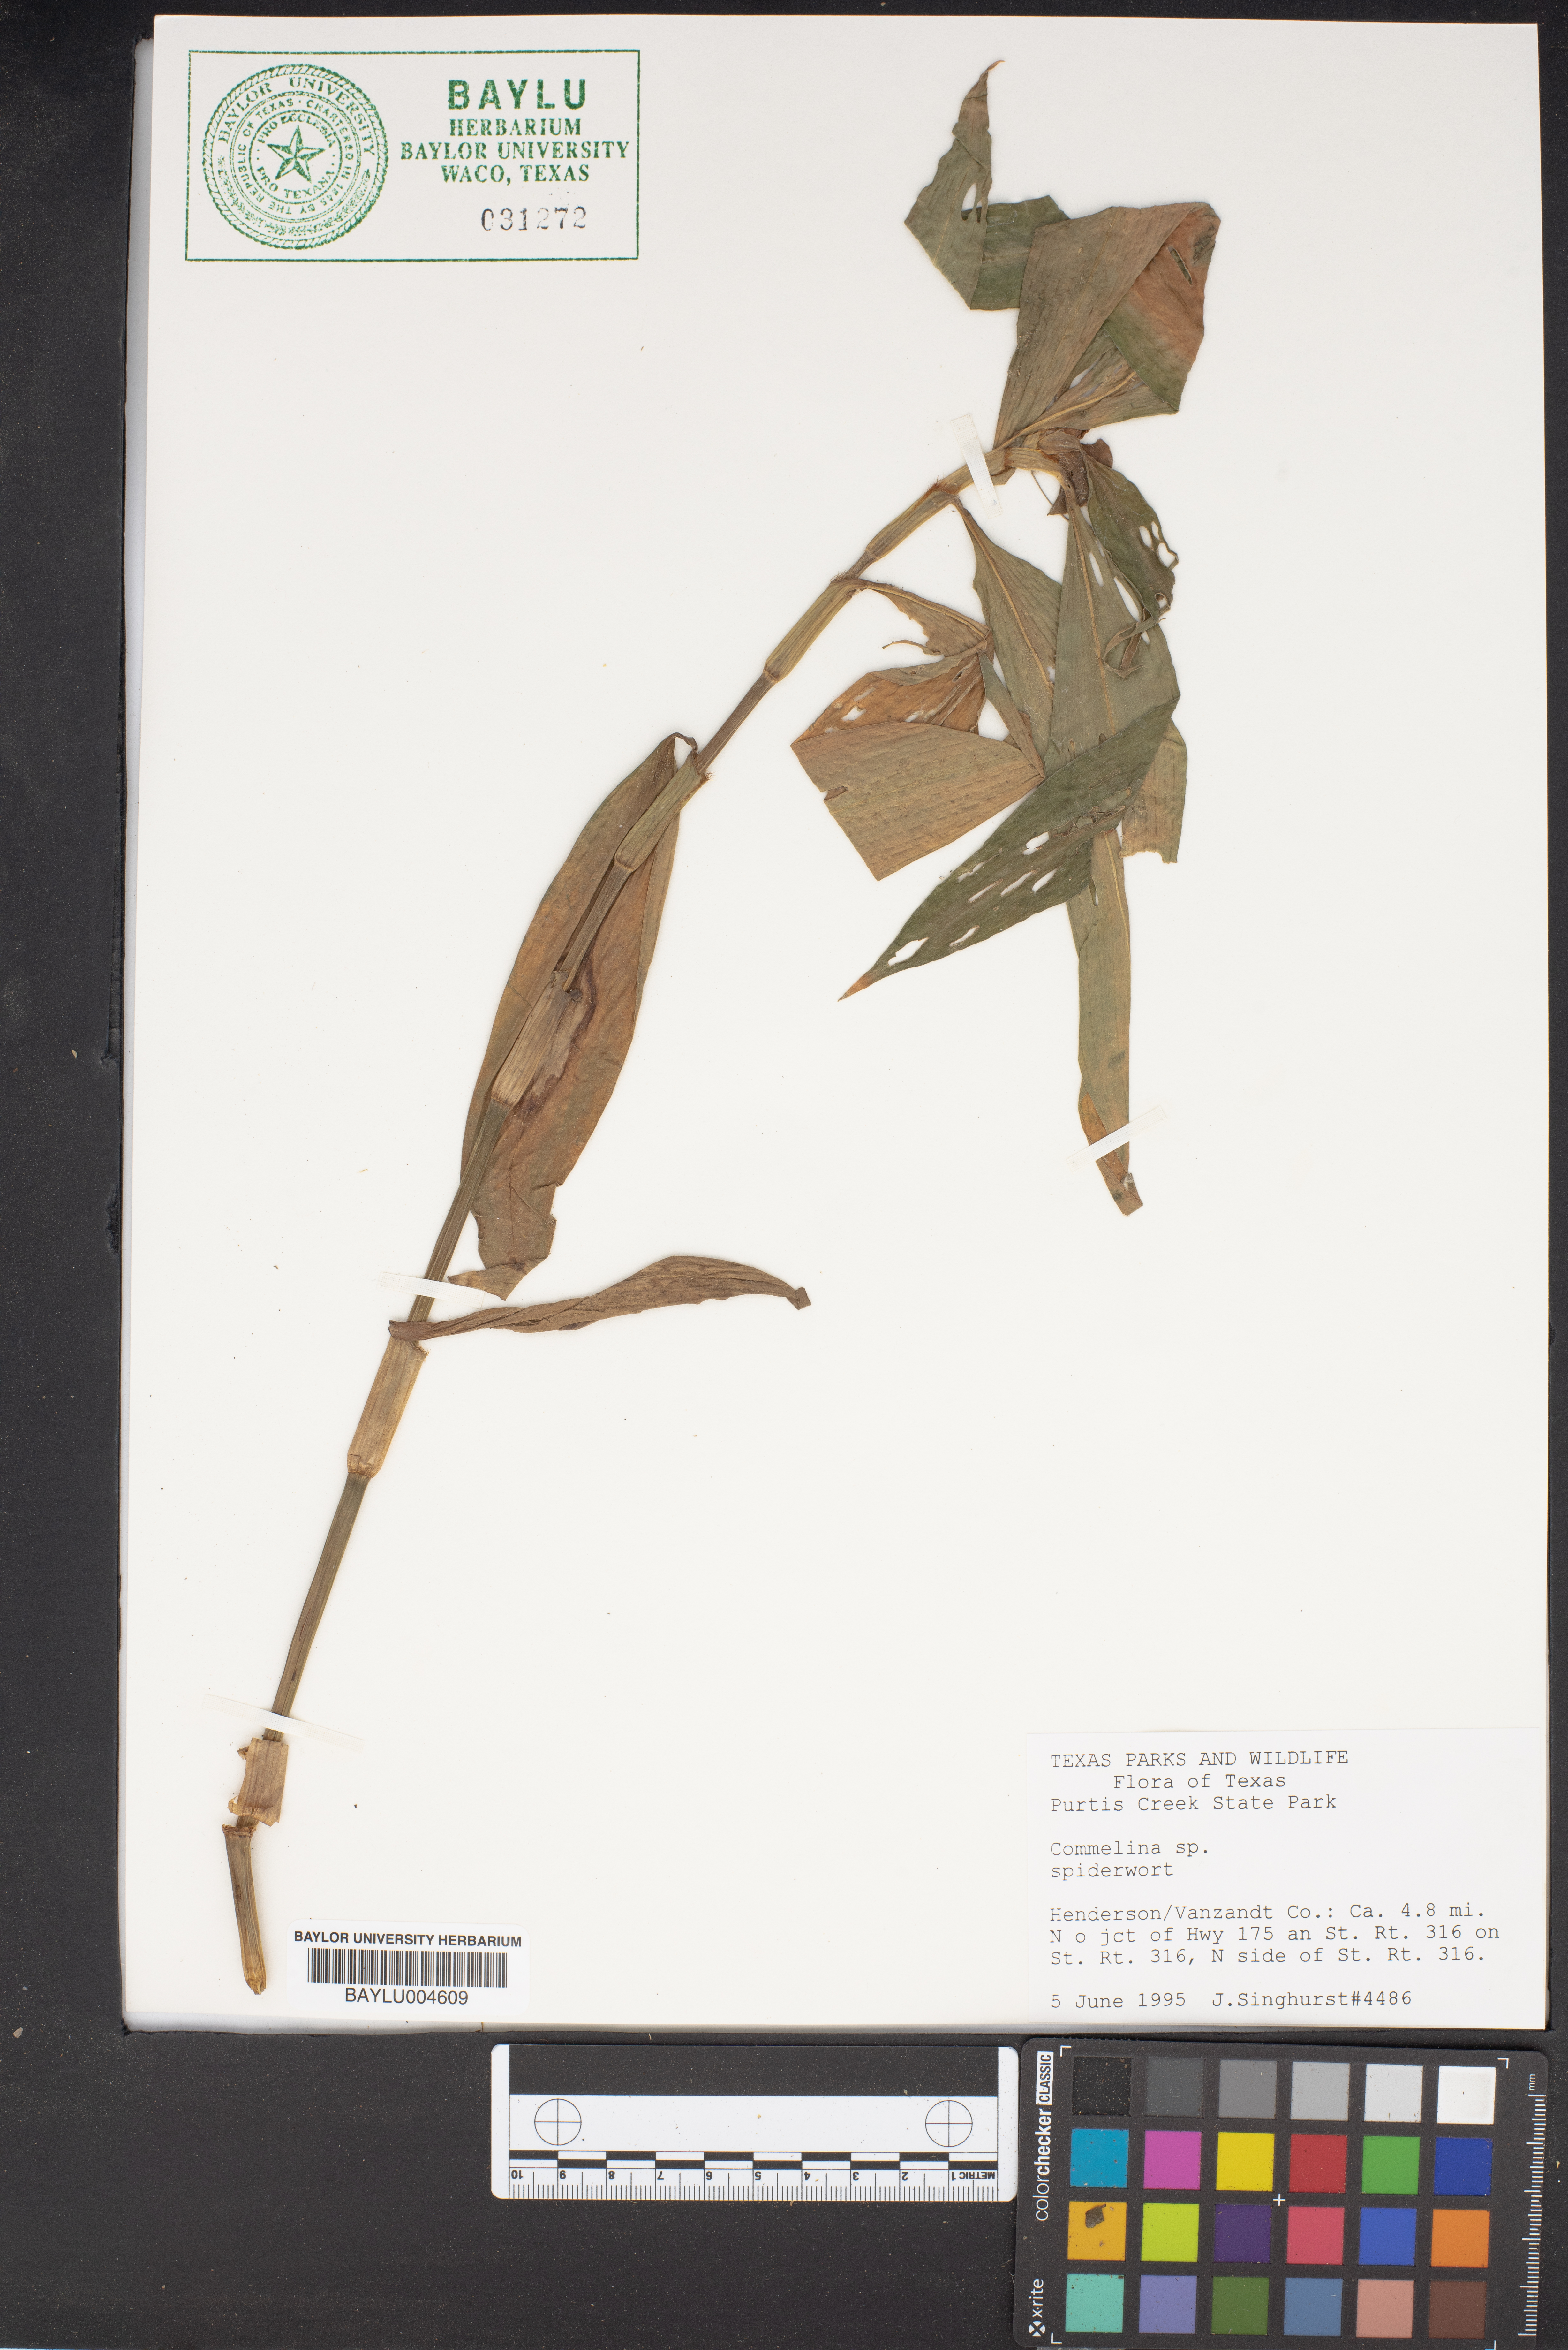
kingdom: Plantae
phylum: Tracheophyta
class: Liliopsida
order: Commelinales
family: Commelinaceae
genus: Commelina
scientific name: Commelina
